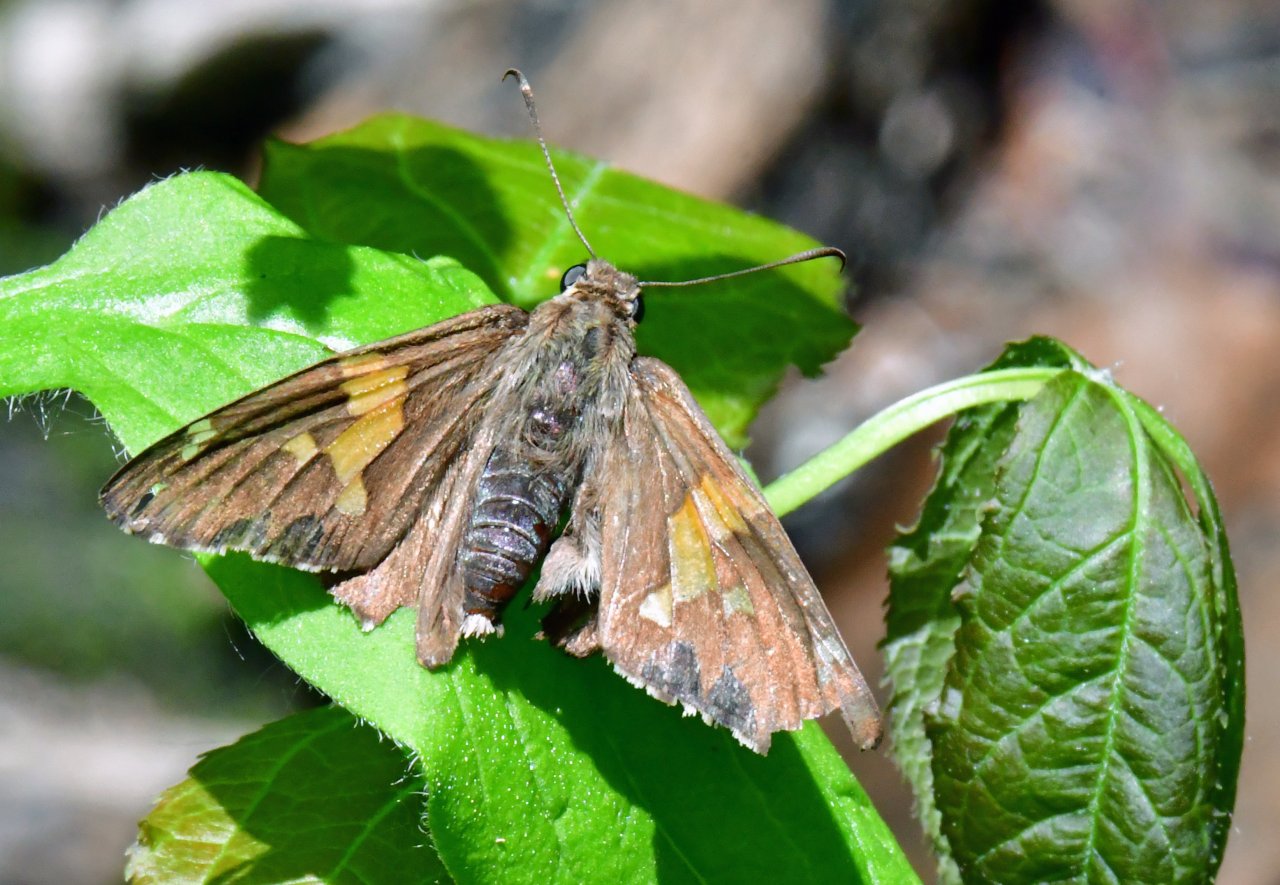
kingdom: Animalia
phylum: Arthropoda
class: Insecta
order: Lepidoptera
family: Hesperiidae
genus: Epargyreus
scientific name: Epargyreus clarus
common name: Silver-spotted Skipper
